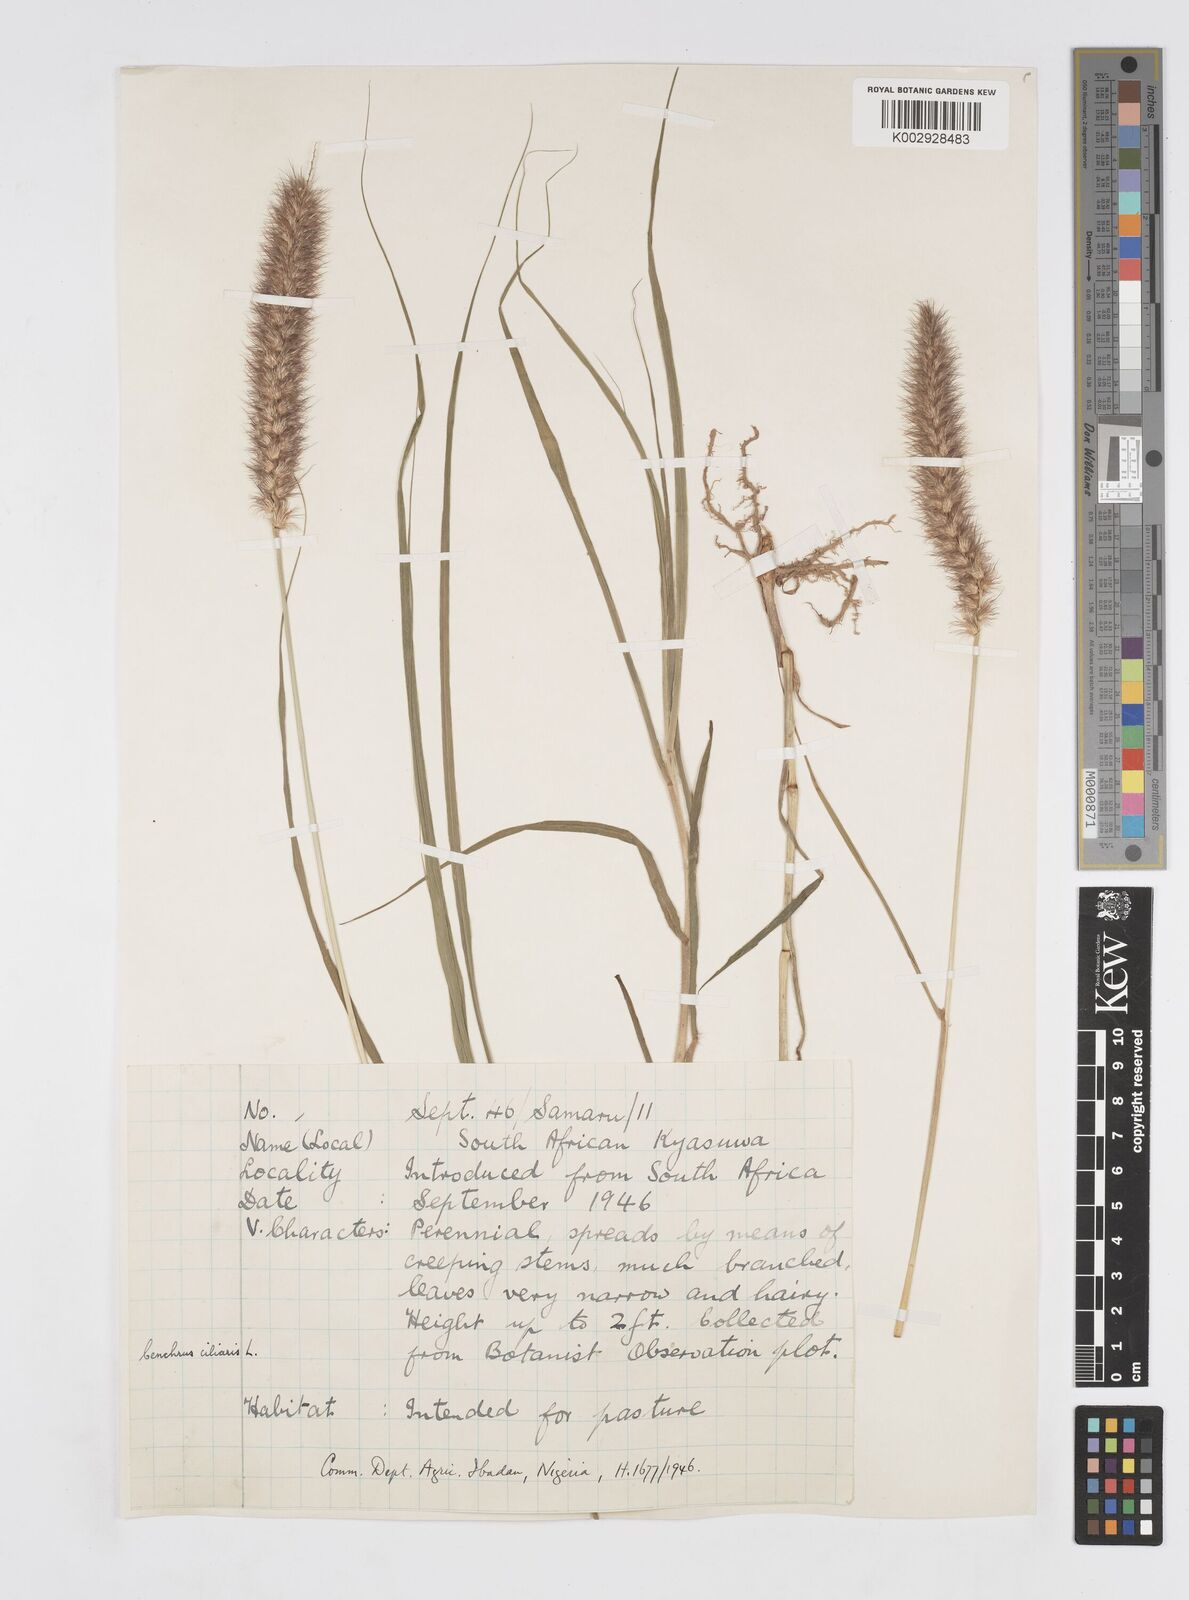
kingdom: Plantae
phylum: Tracheophyta
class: Liliopsida
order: Poales
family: Poaceae
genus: Cenchrus
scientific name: Cenchrus ciliaris
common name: Buffelgrass
